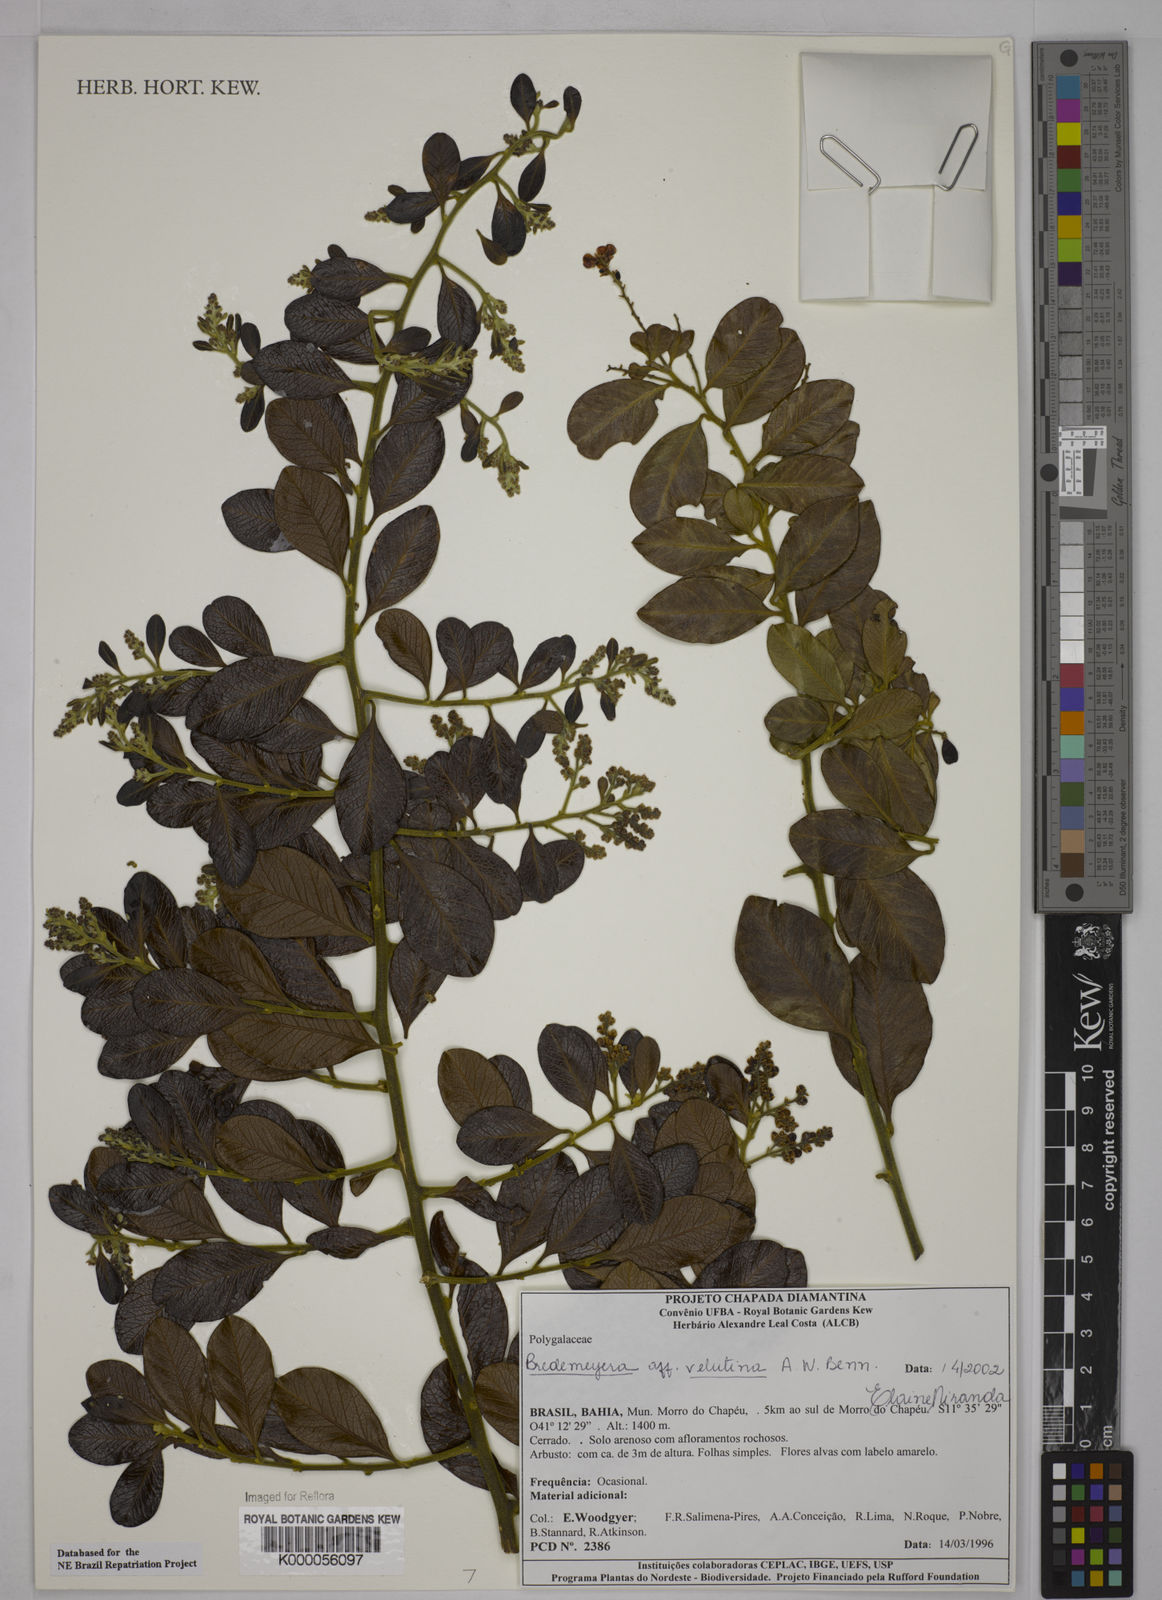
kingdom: Plantae
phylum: Tracheophyta
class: Magnoliopsida
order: Fabales
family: Polygalaceae
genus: Bredemeyera
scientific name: Bredemeyera hebeclada
